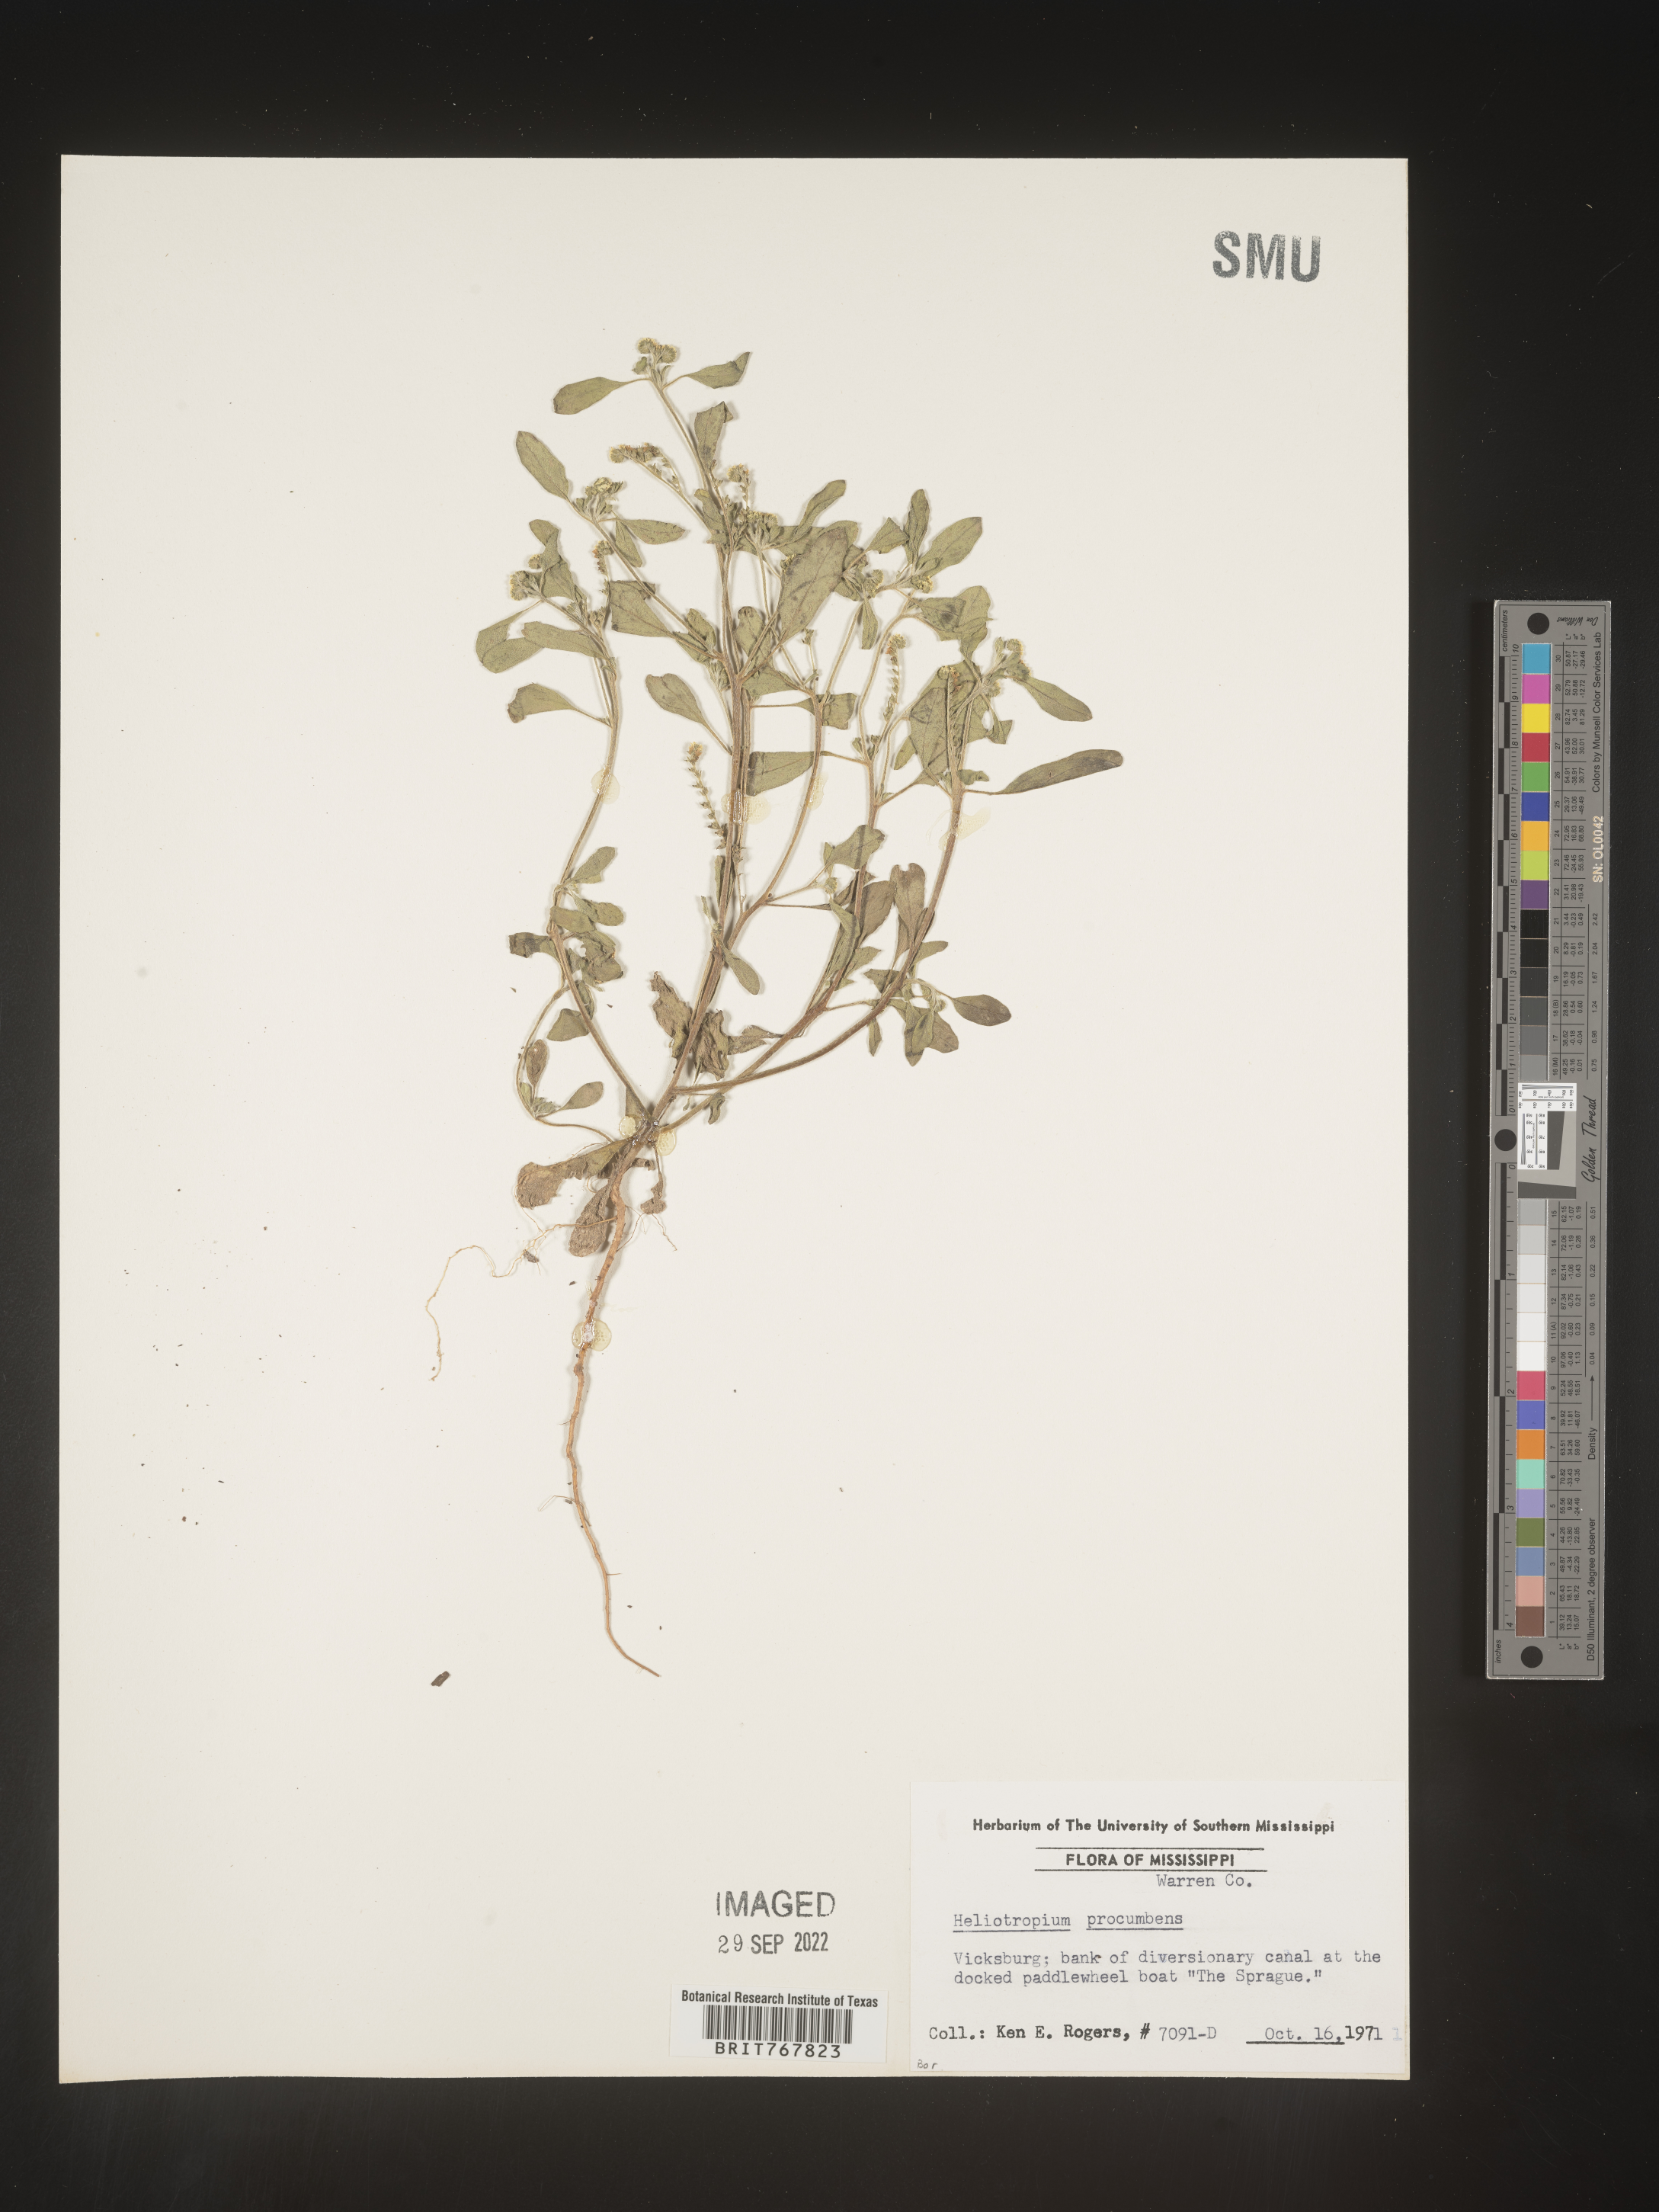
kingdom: Plantae
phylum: Tracheophyta
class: Magnoliopsida
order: Boraginales
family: Heliotropiaceae
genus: Heliotropium
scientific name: Heliotropium
